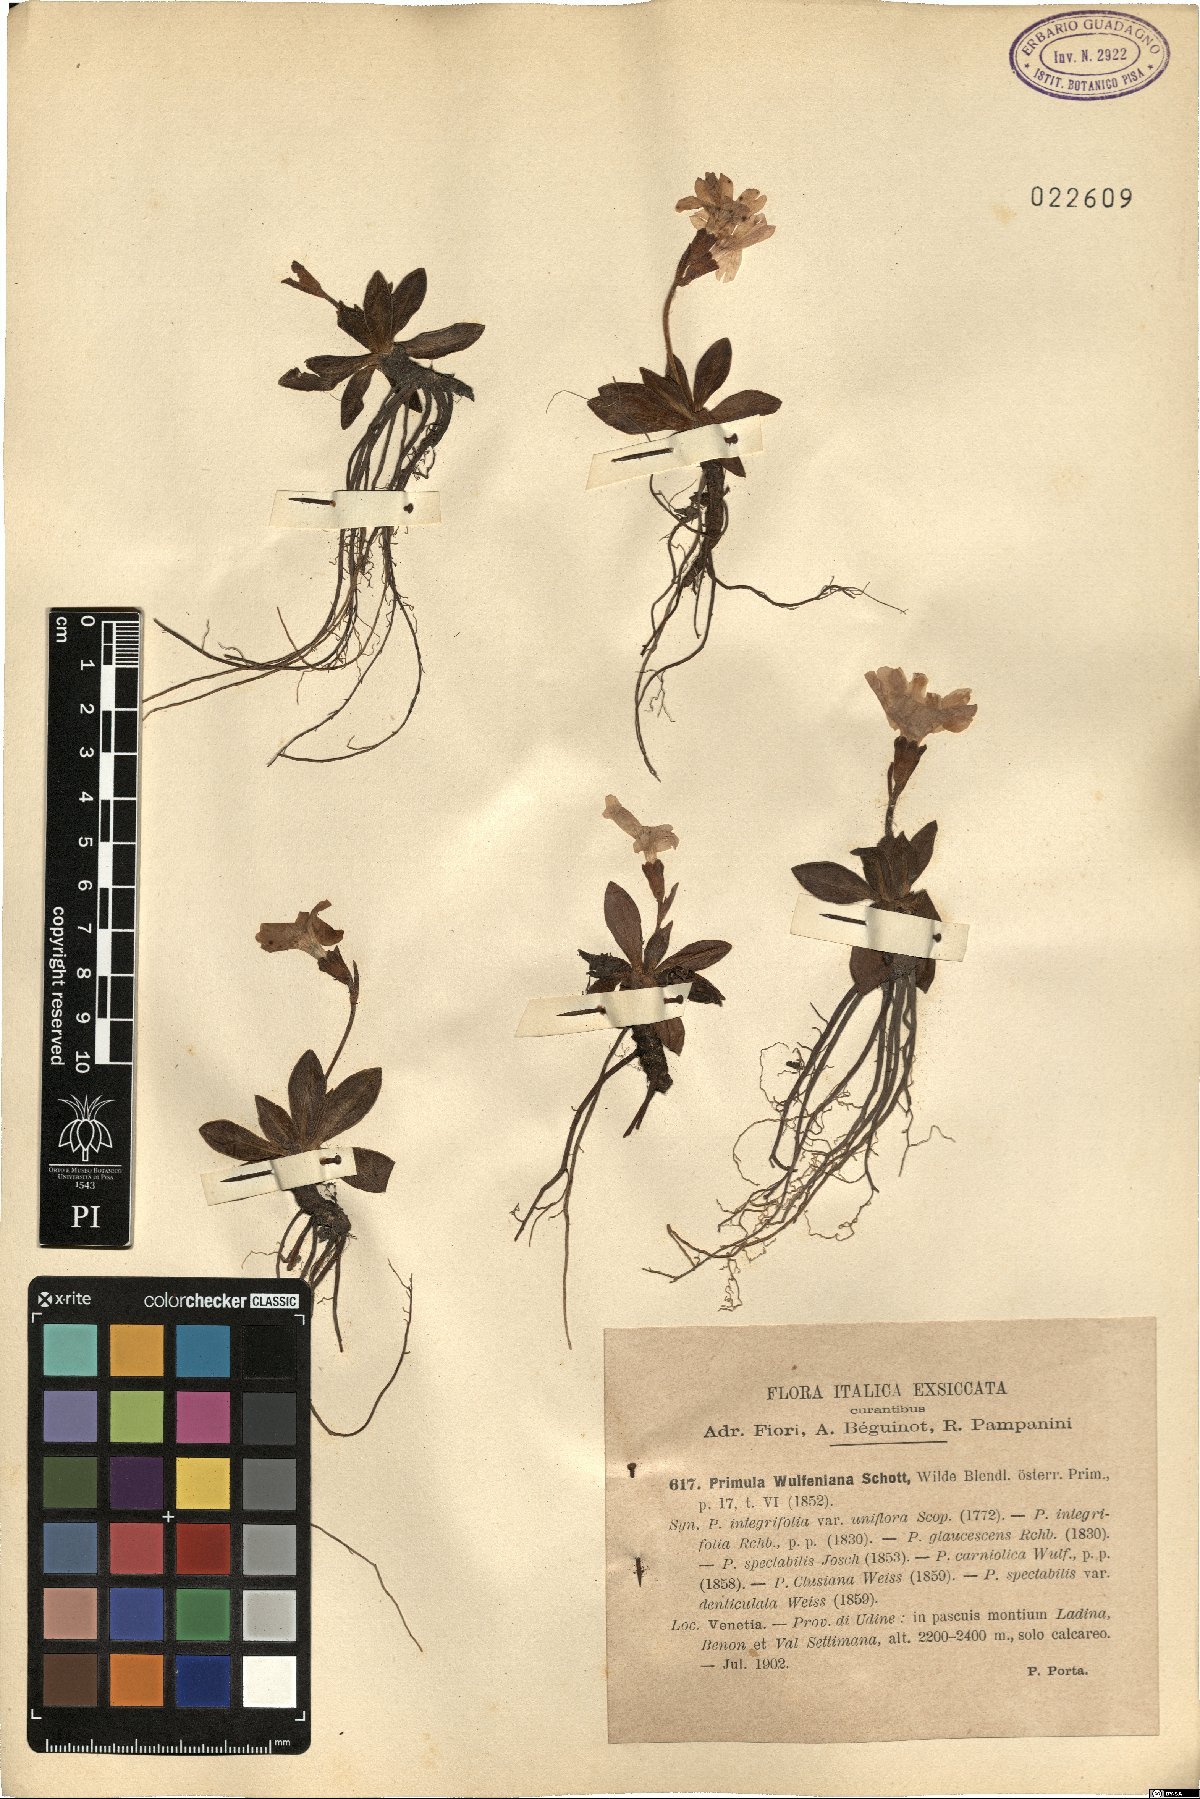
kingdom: Plantae
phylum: Tracheophyta
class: Magnoliopsida
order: Ericales
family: Primulaceae
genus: Primula
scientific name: Primula wulfeniana
